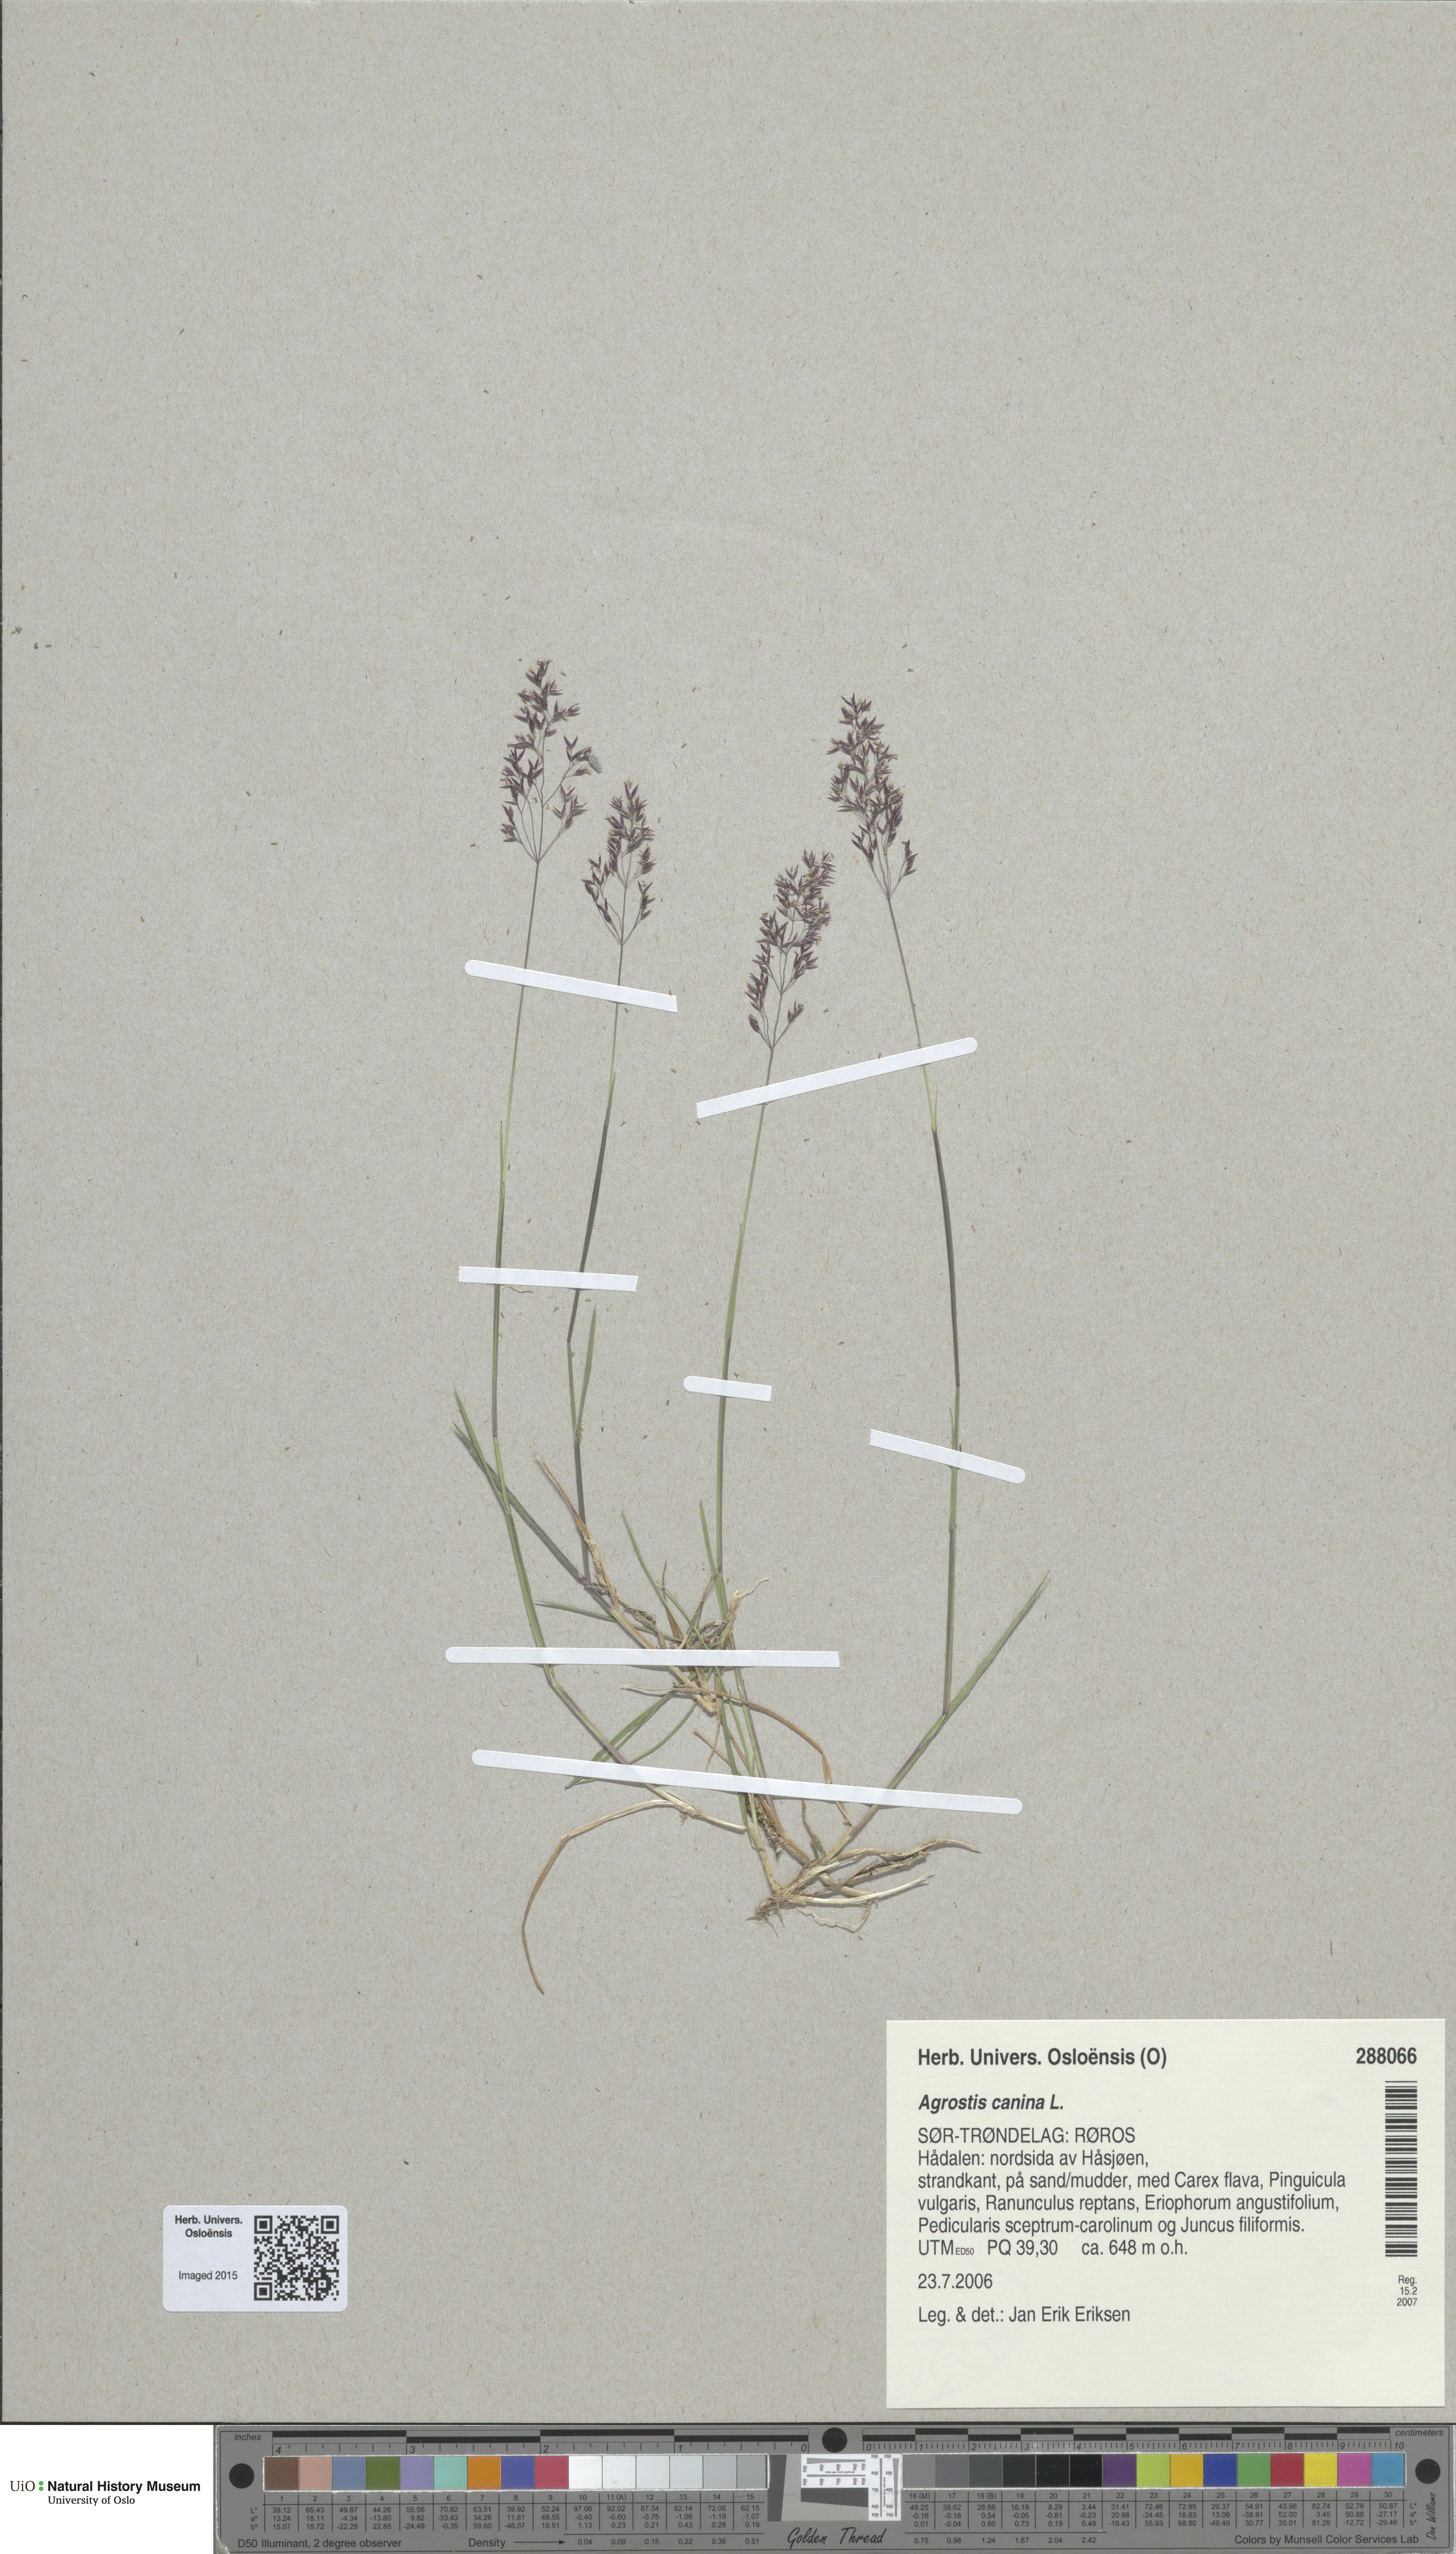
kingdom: Plantae
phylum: Tracheophyta
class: Liliopsida
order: Poales
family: Poaceae
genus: Agrostis
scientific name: Agrostis canina
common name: Velvet bent
